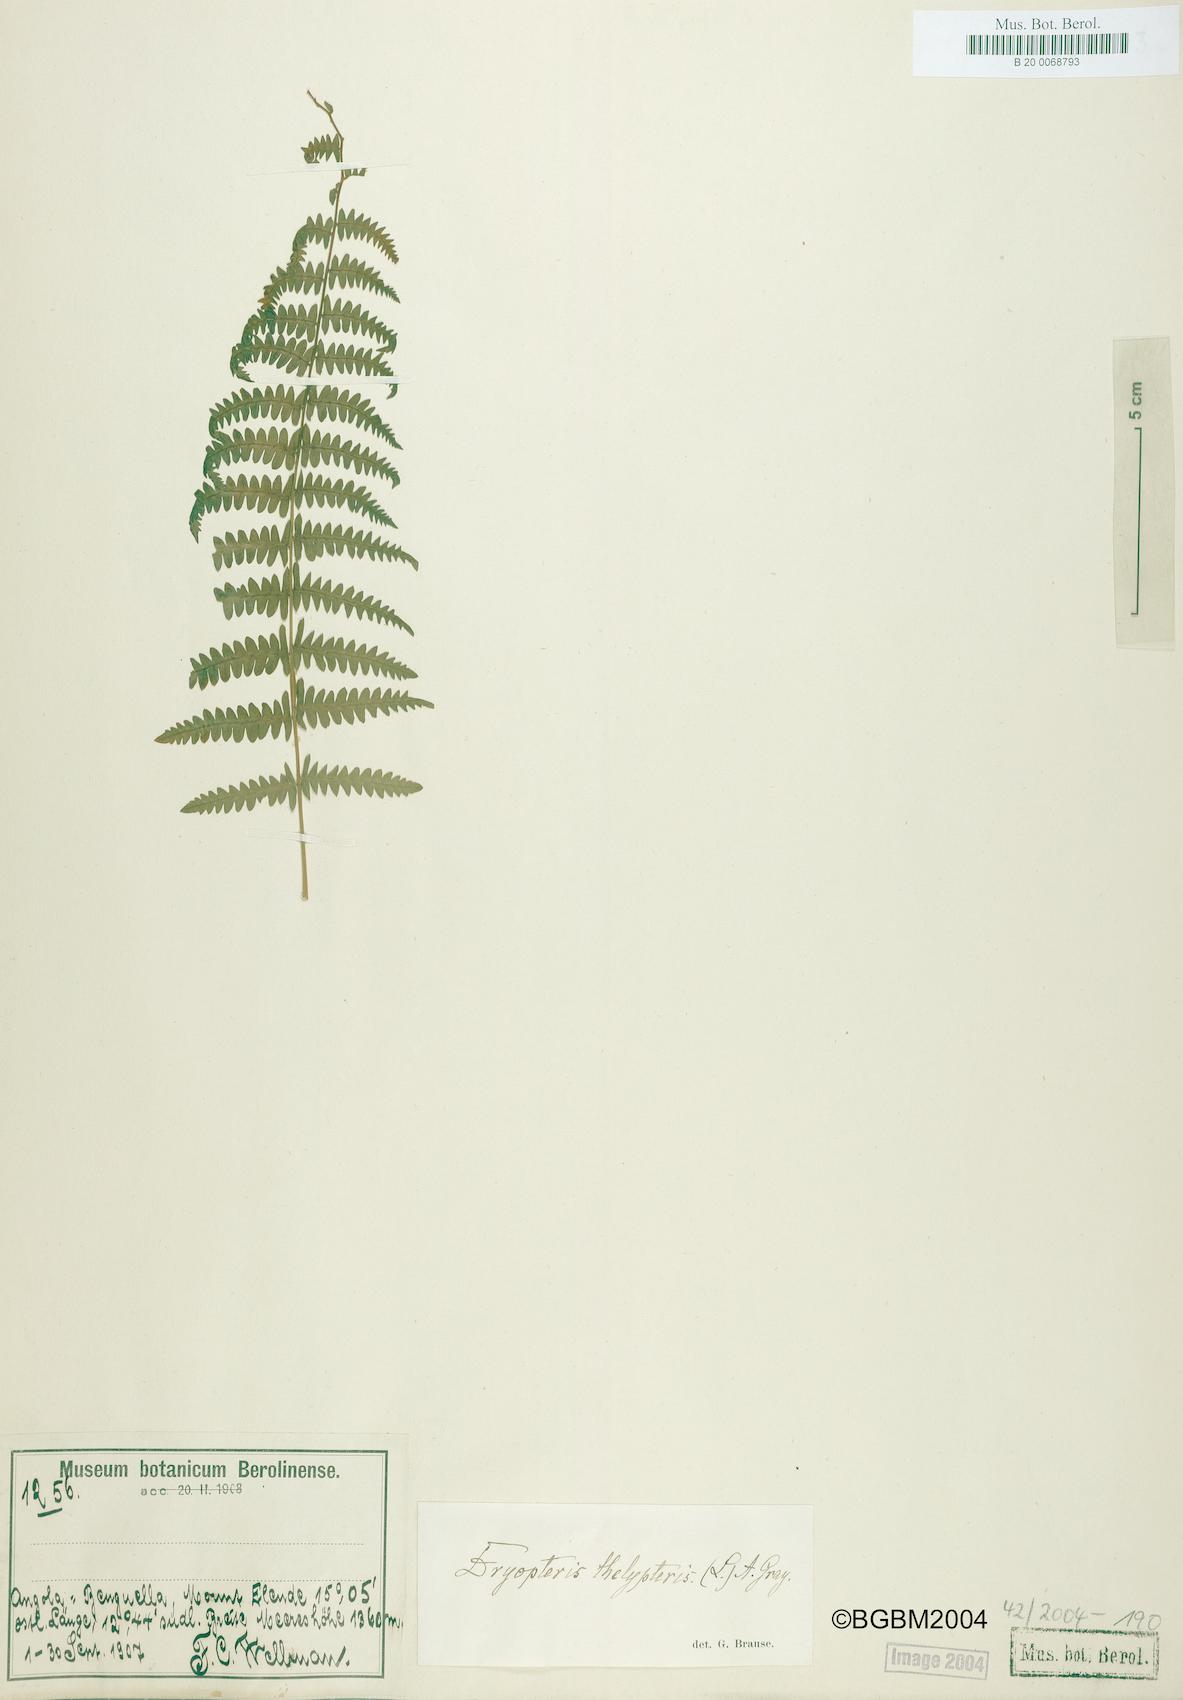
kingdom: Plantae
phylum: Tracheophyta
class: Polypodiopsida
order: Polypodiales
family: Thelypteridaceae
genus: Thelypteris
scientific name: Thelypteris palustris
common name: Marsh fern
